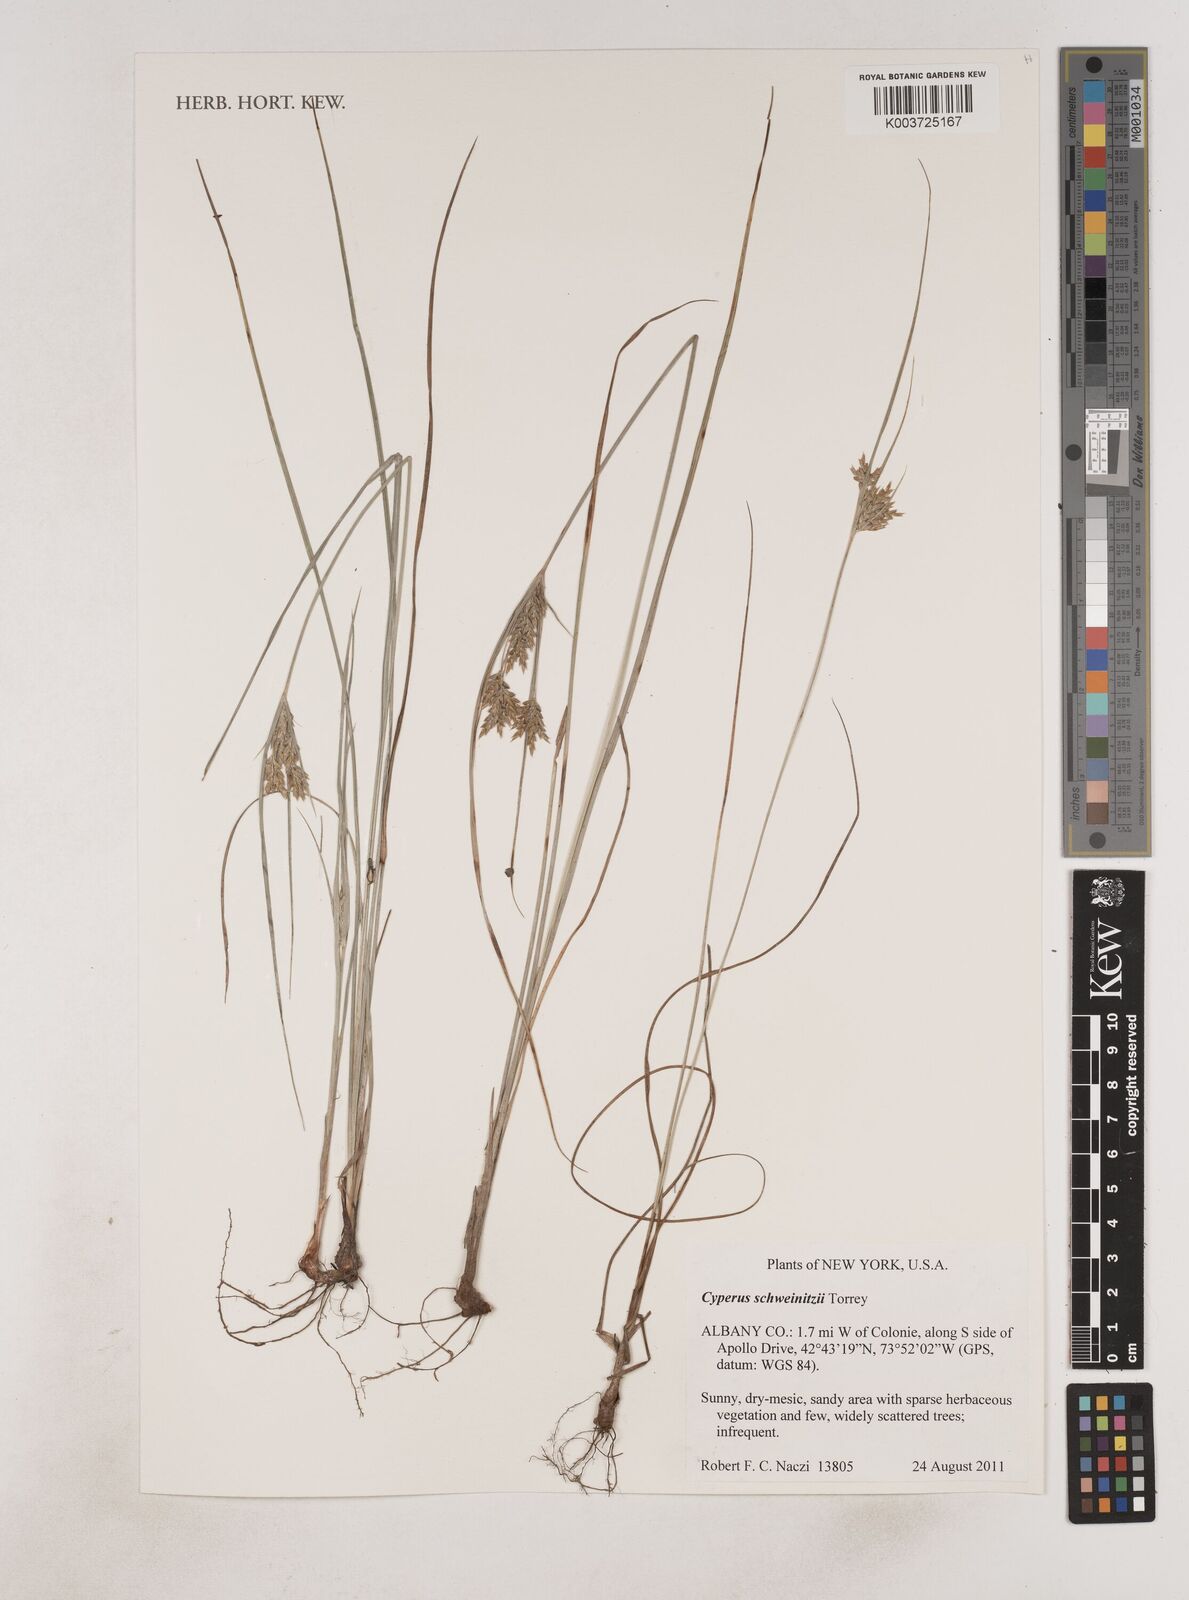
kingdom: Plantae
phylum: Tracheophyta
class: Liliopsida
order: Poales
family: Cyperaceae
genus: Cyperus
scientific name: Cyperus schweinitzii
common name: Schweinitz's cyperus
